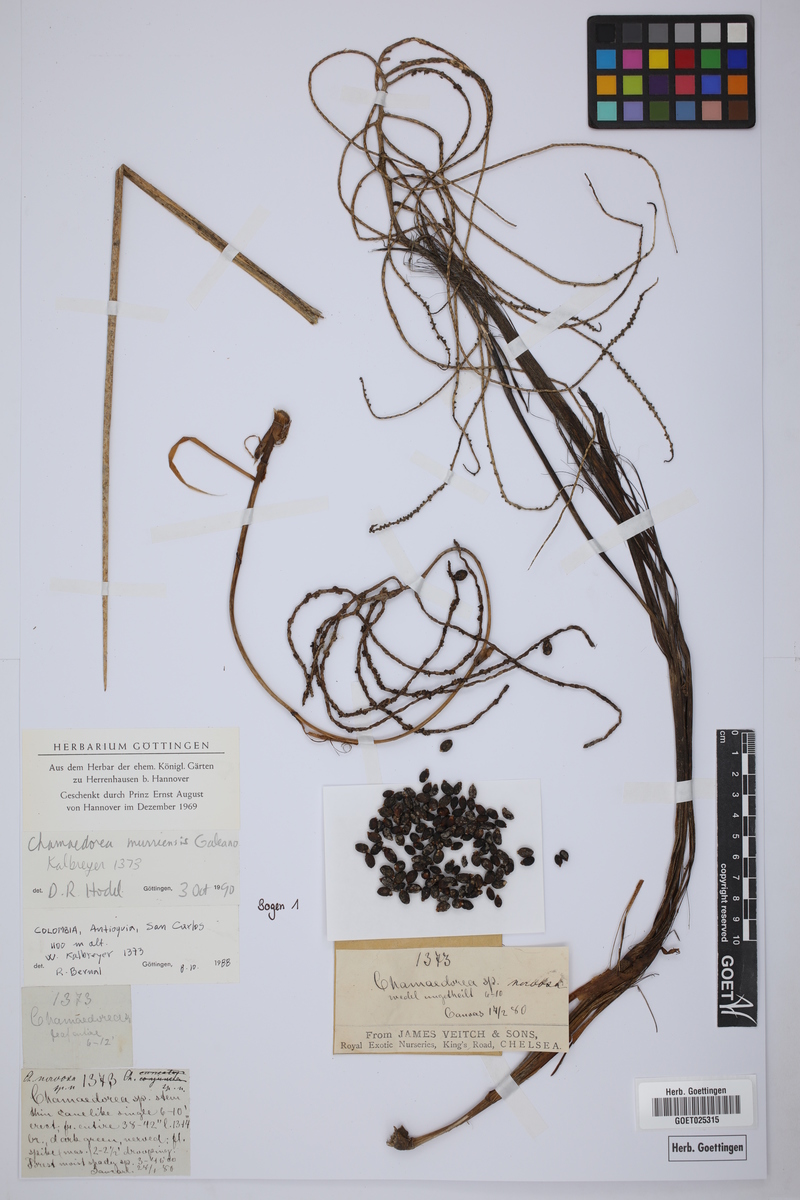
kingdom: Plantae
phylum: Tracheophyta
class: Liliopsida
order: Arecales
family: Arecaceae
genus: Chamaedorea
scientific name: Chamaedorea warscewiczii
